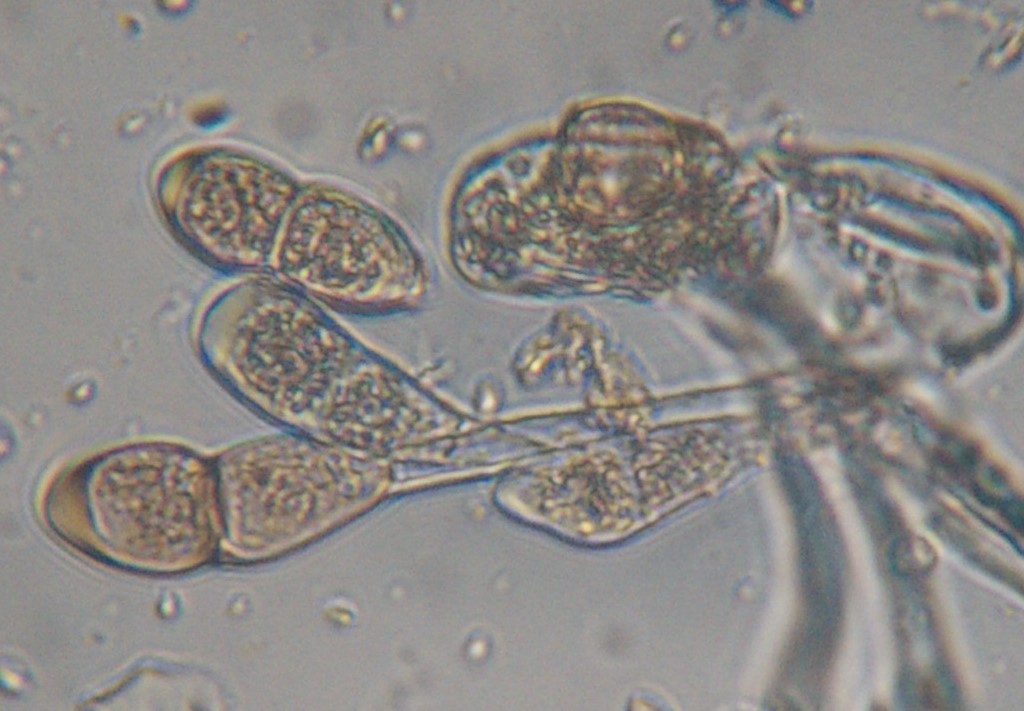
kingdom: Fungi
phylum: Basidiomycota
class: Pucciniomycetes
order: Pucciniales
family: Pucciniaceae
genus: Puccinia
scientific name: Puccinia arenariae
